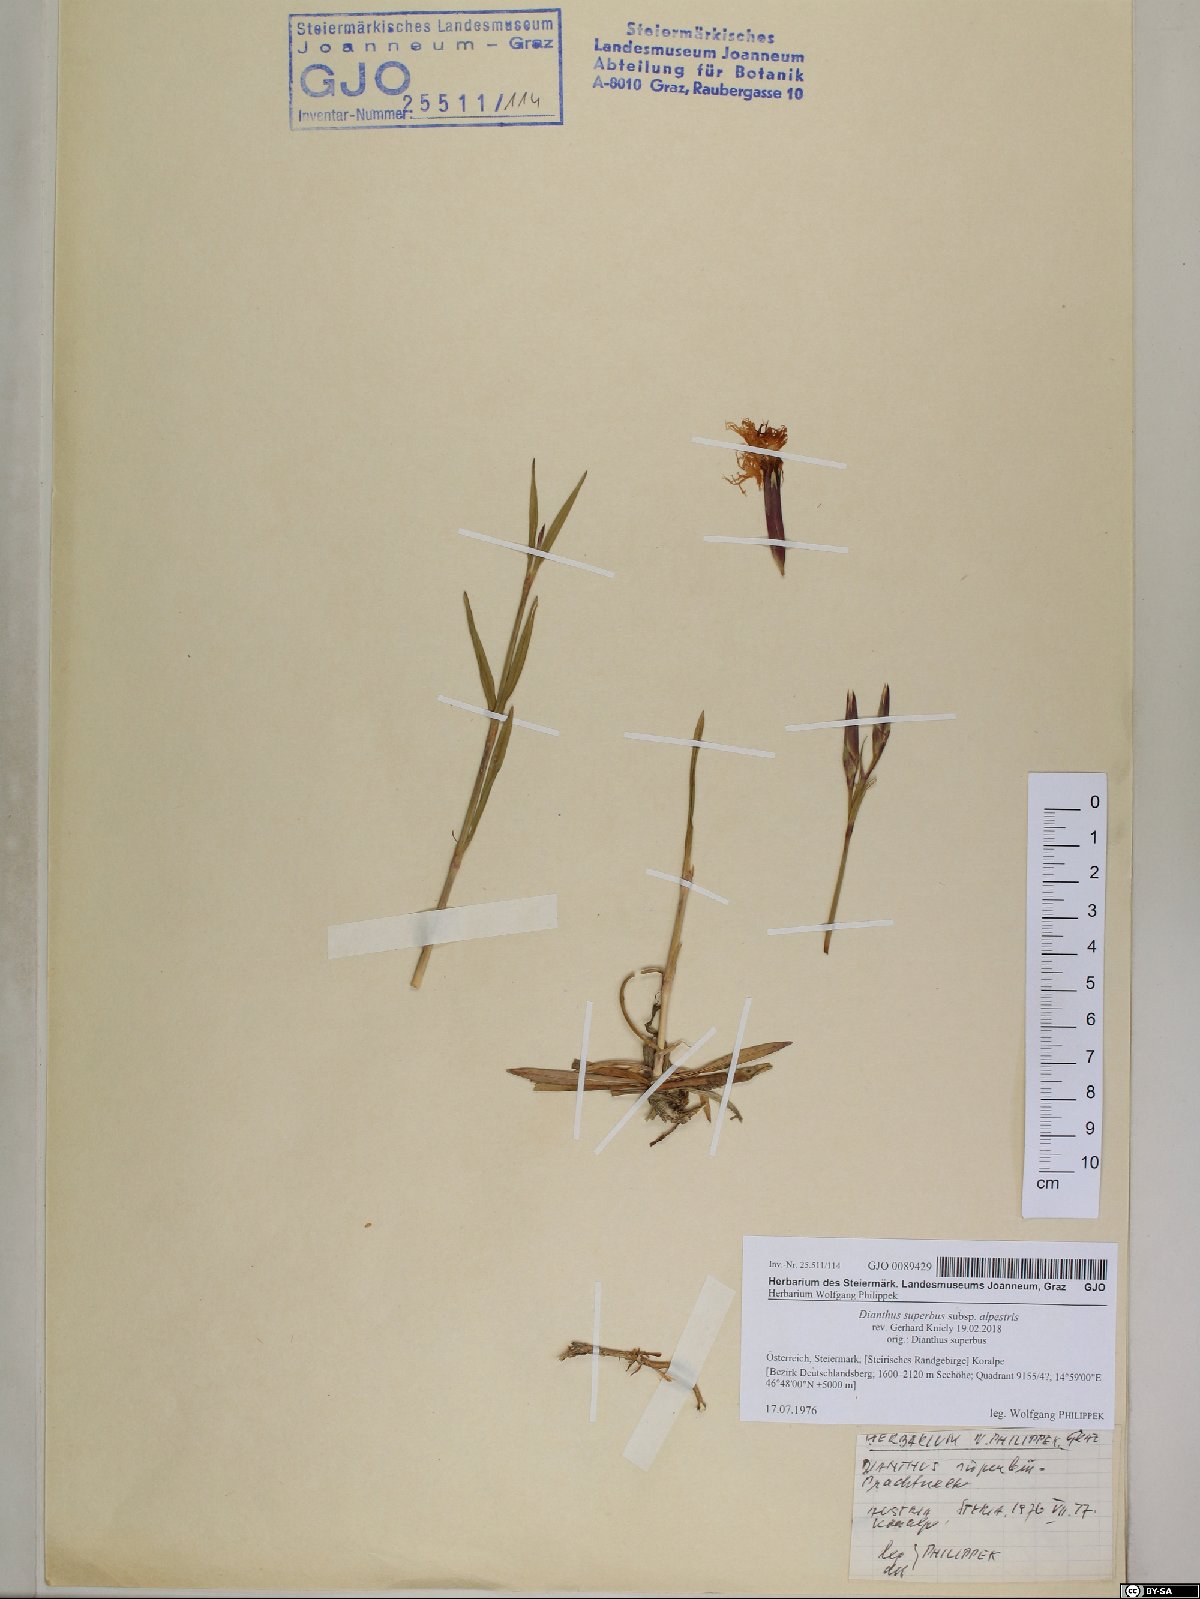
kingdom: Plantae
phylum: Tracheophyta
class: Magnoliopsida
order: Caryophyllales
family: Caryophyllaceae
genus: Dianthus
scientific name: Dianthus superbus
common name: Fringed pink
